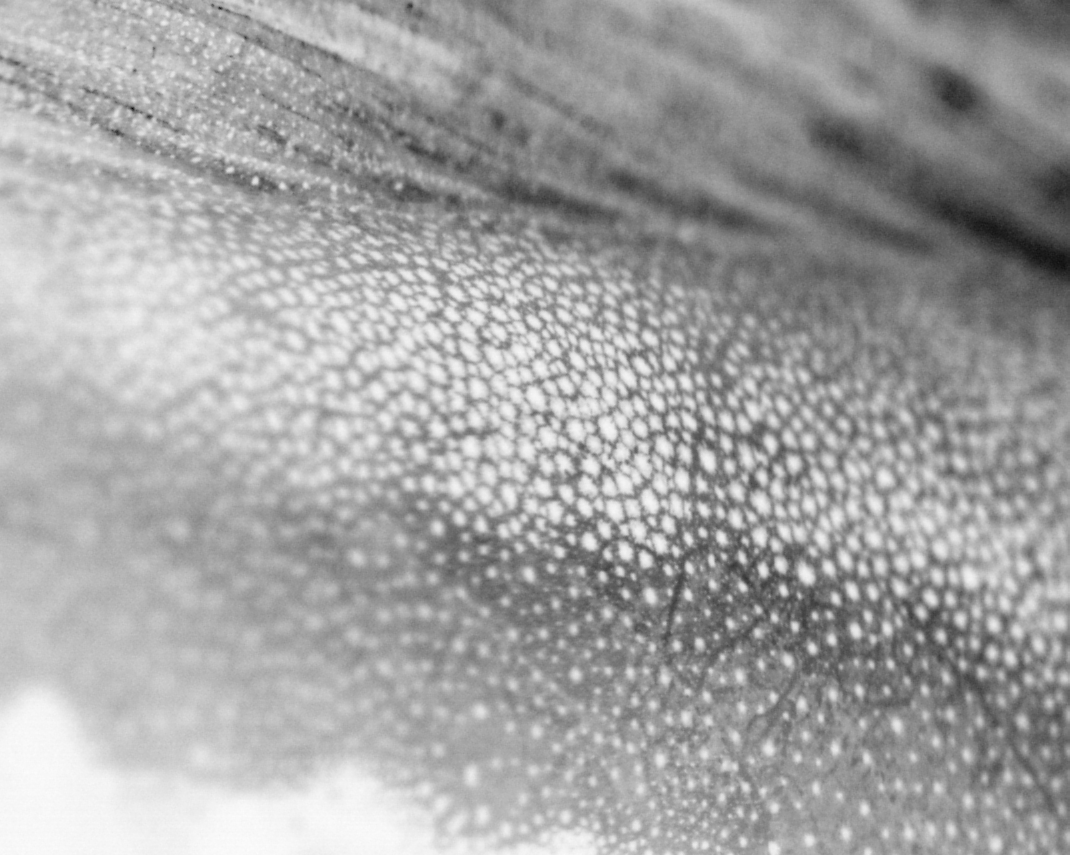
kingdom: Animalia
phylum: Chordata
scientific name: Chordata
